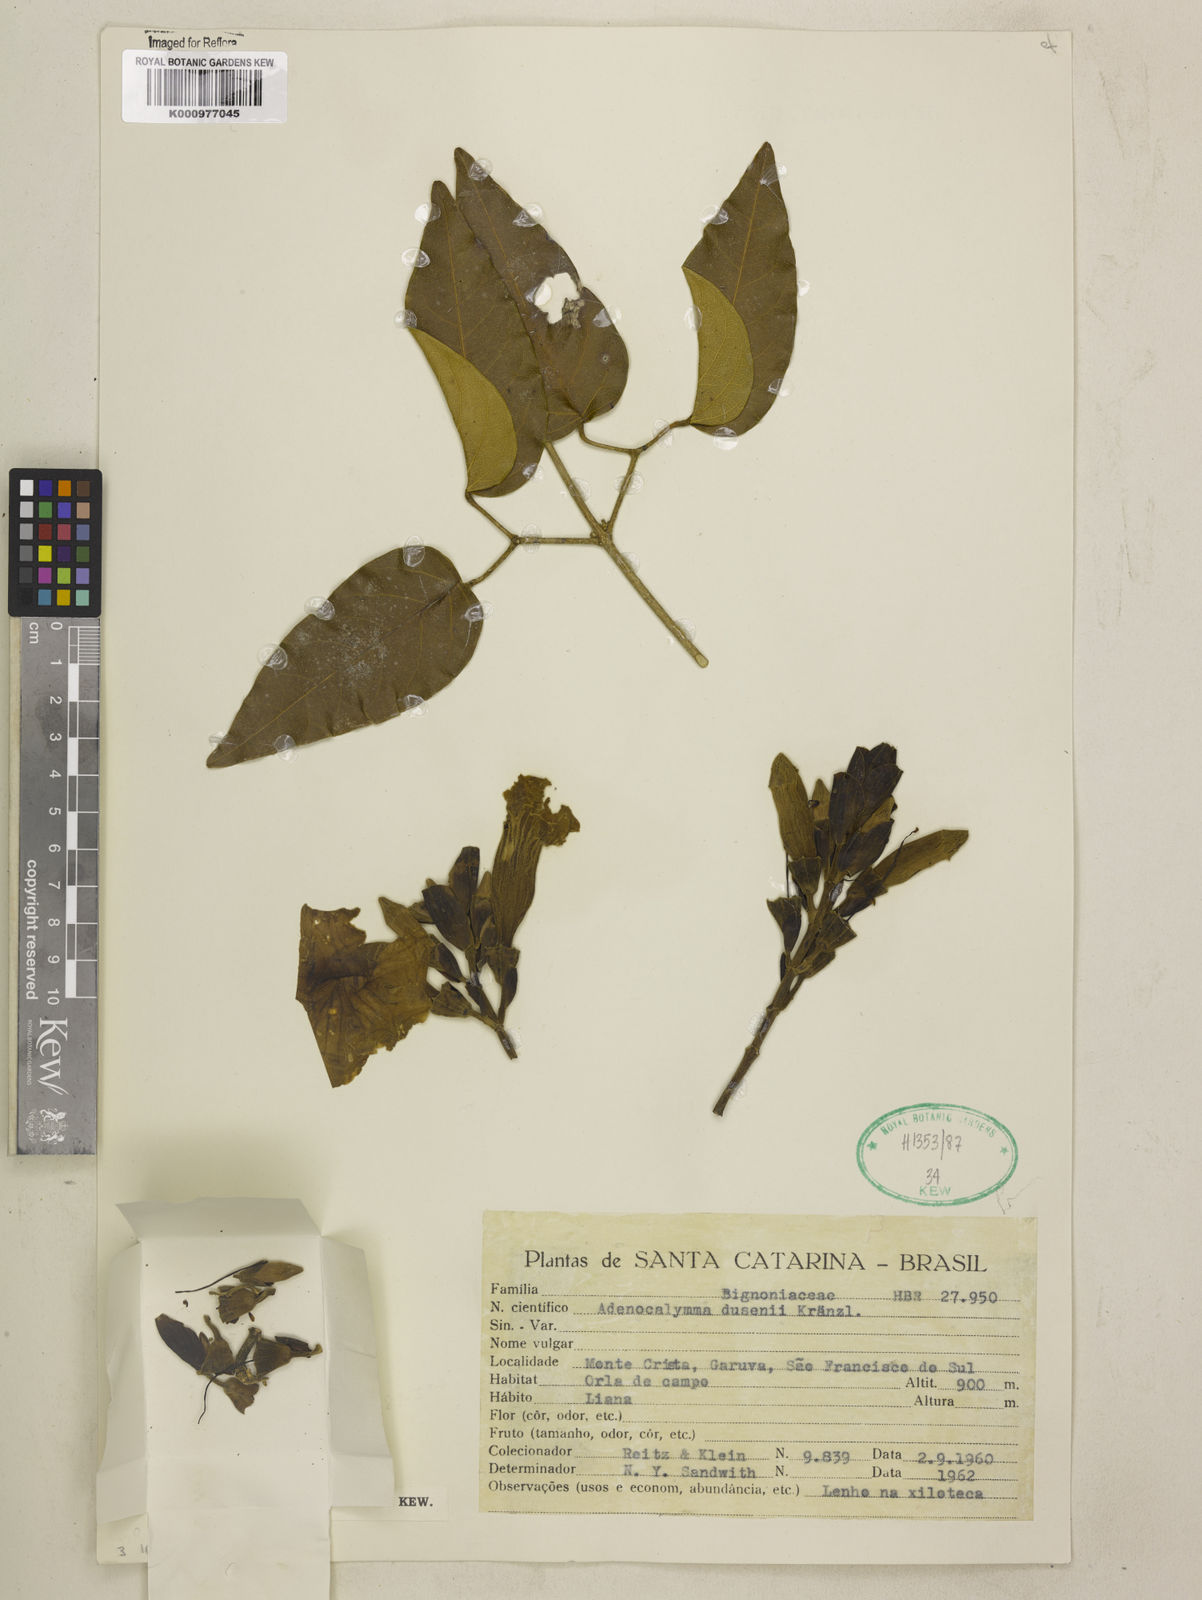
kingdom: Plantae
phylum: Tracheophyta
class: Magnoliopsida
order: Lamiales
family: Bignoniaceae
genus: Adenocalymma
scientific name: Adenocalymma dusenii
